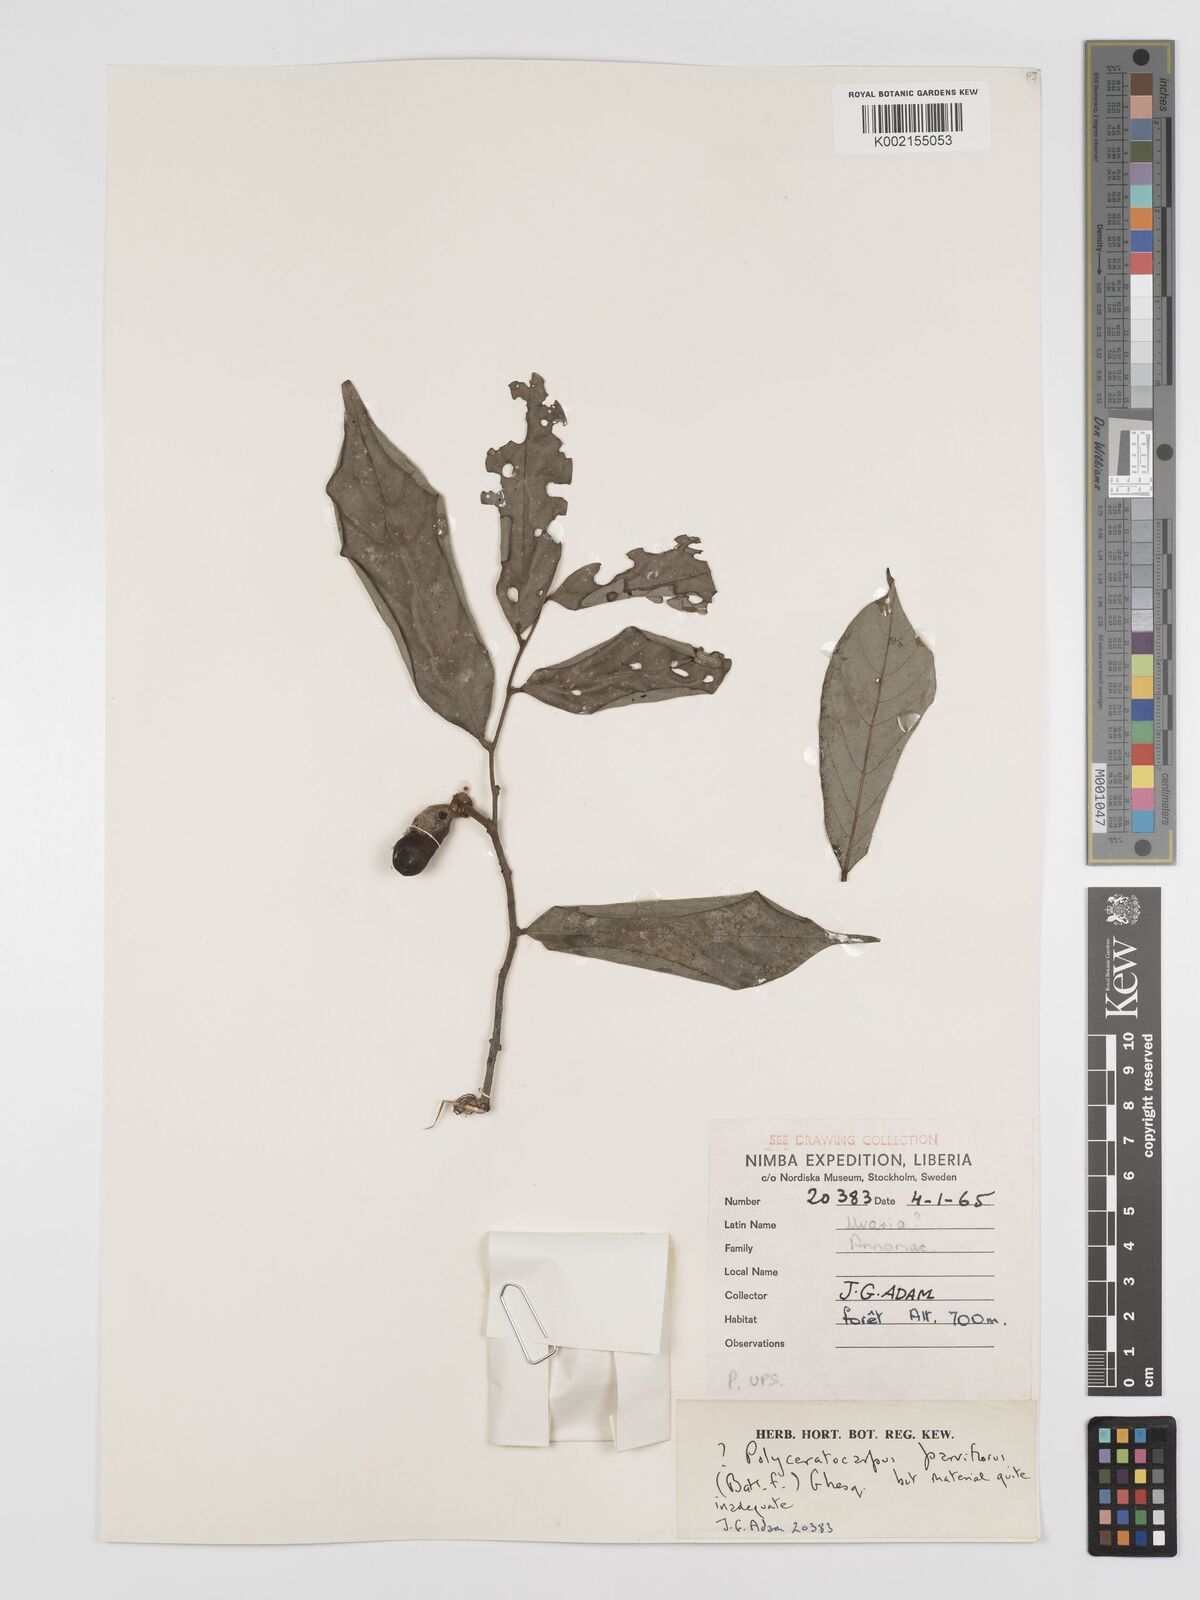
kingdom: Plantae
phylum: Tracheophyta
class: Magnoliopsida
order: Magnoliales
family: Annonaceae
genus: Polyceratocarpus
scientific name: Polyceratocarpus parviflorus
